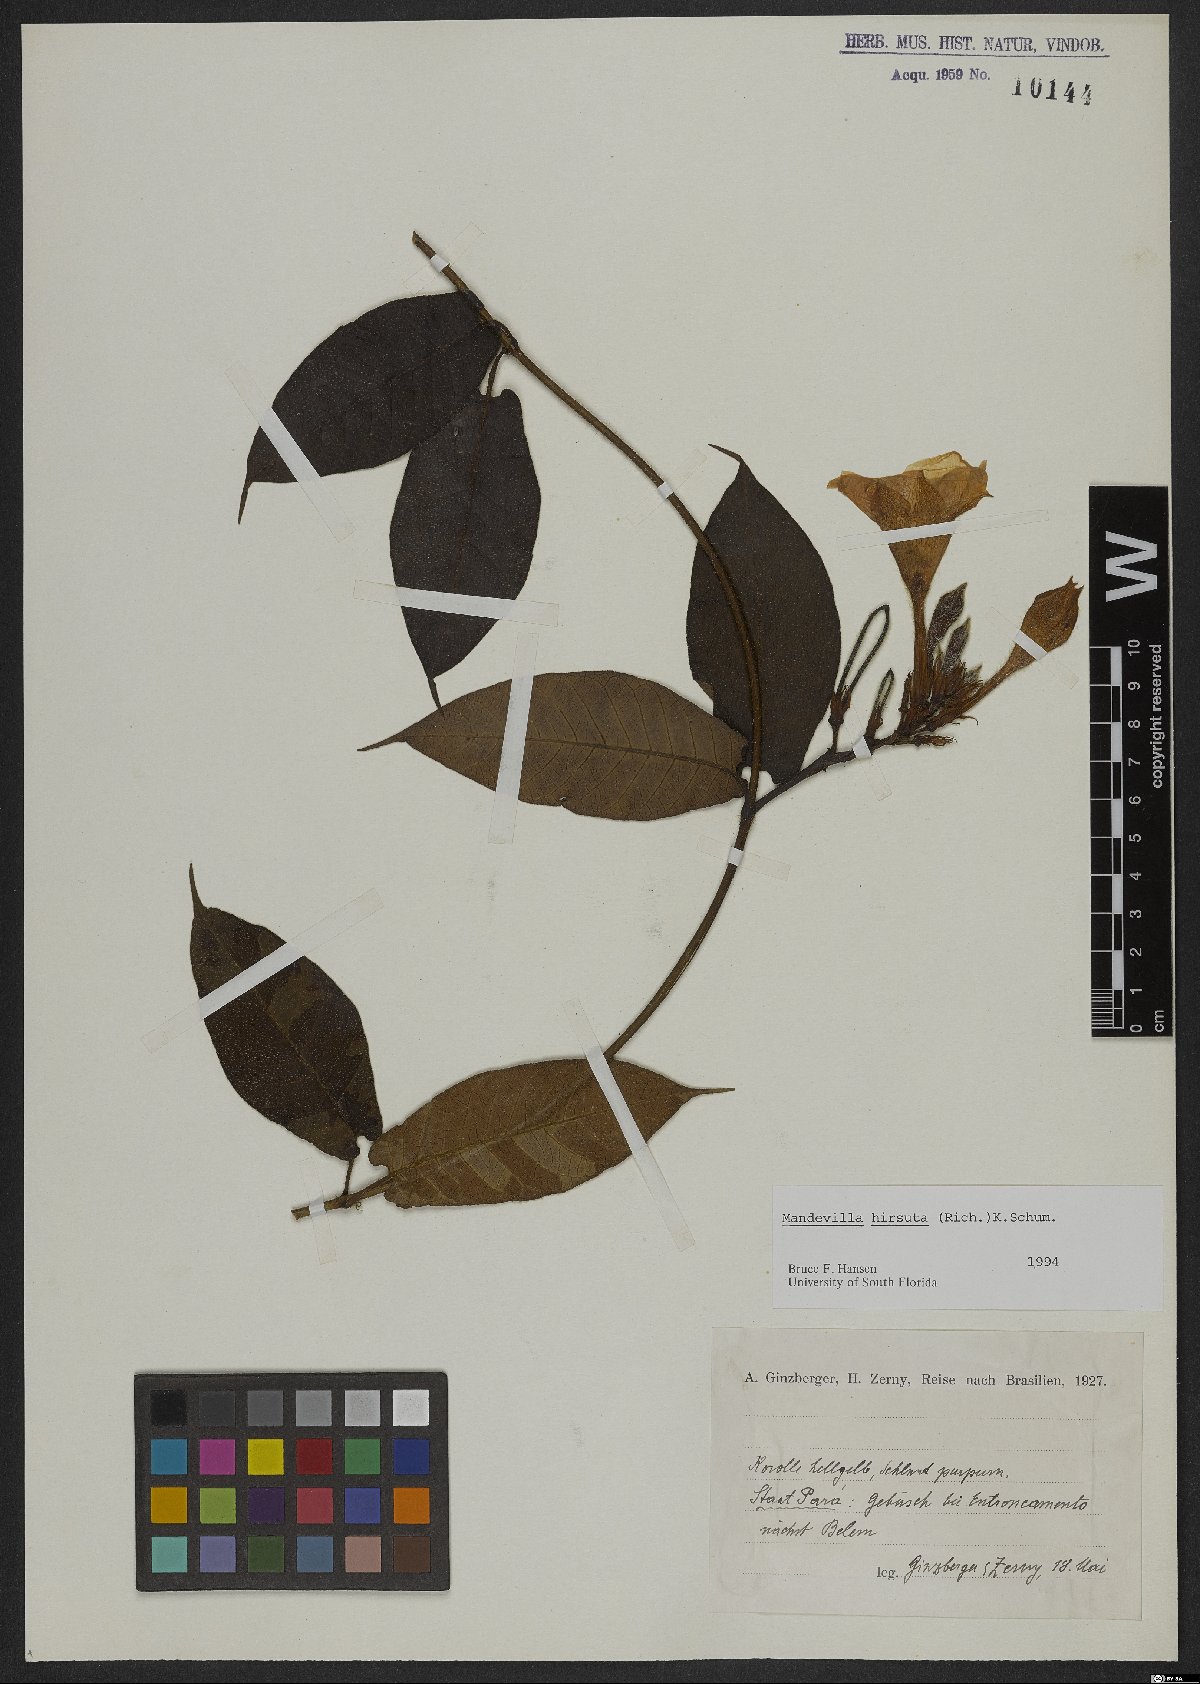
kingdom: Plantae
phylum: Tracheophyta
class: Magnoliopsida
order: Gentianales
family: Apocynaceae
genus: Mandevilla
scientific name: Mandevilla hirsuta
